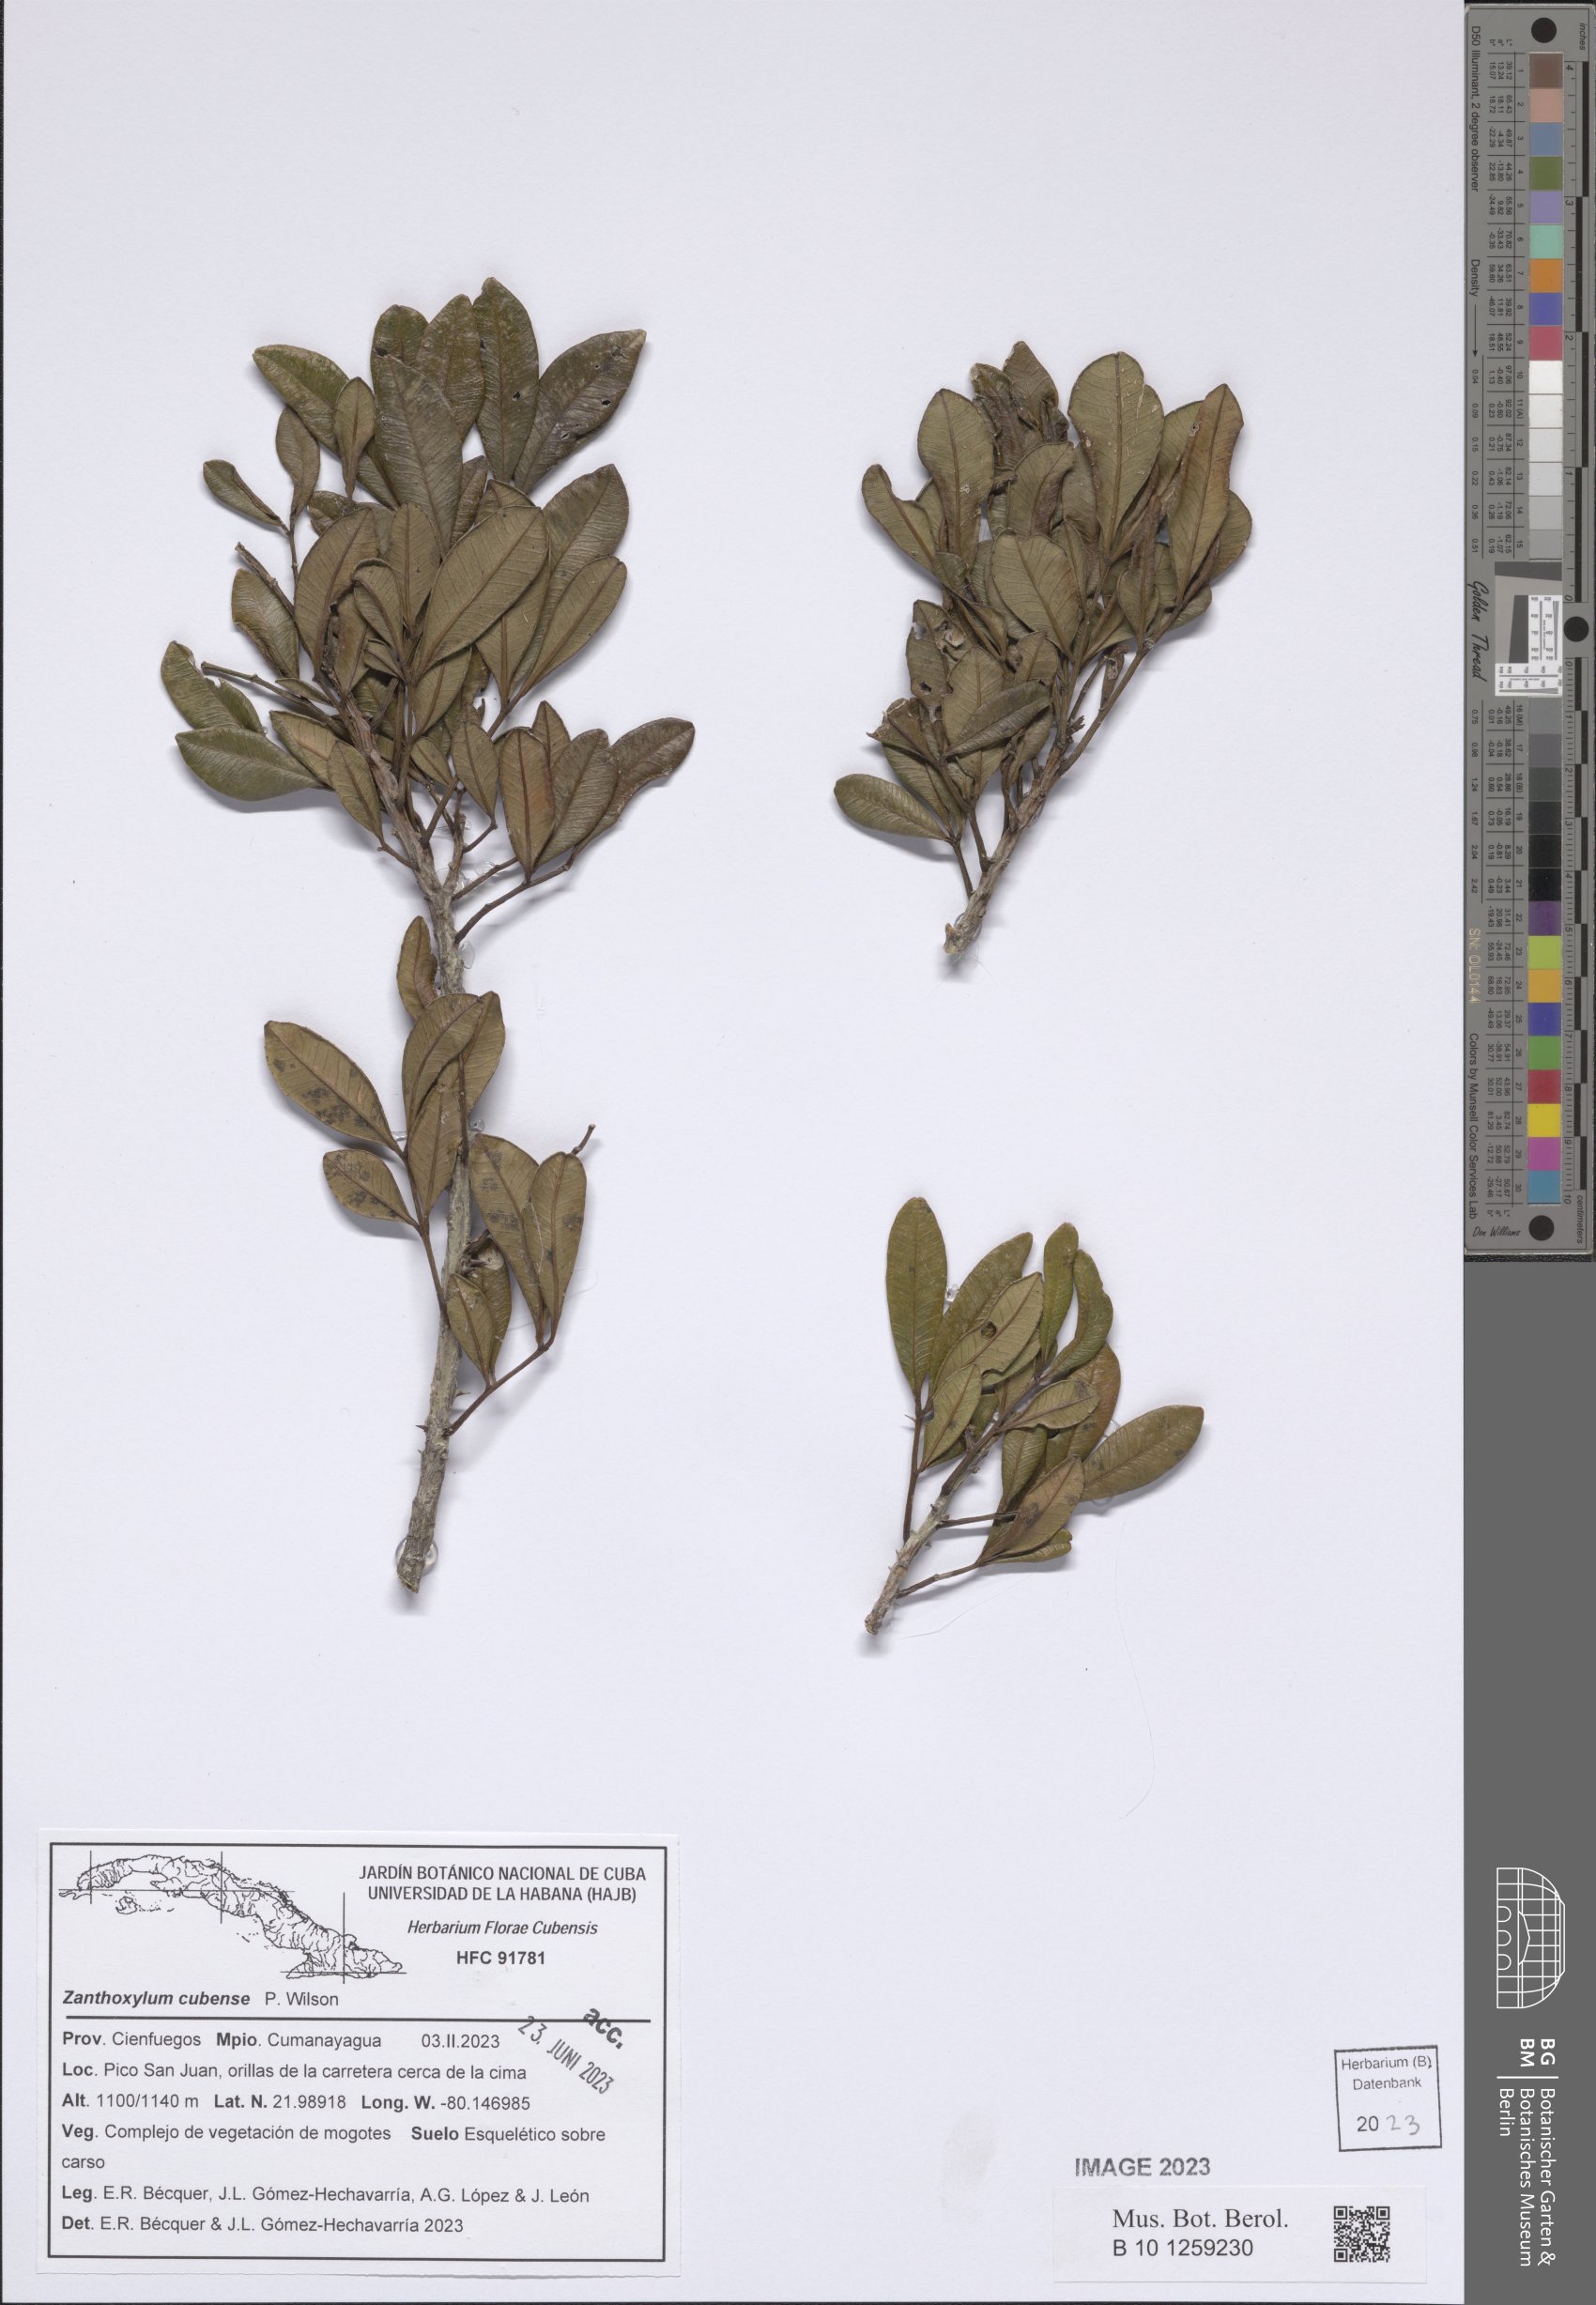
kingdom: Plantae
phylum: Tracheophyta
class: Magnoliopsida
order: Sapindales
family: Rutaceae
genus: Zanthoxylum
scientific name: Zanthoxylum rhodoxylon
